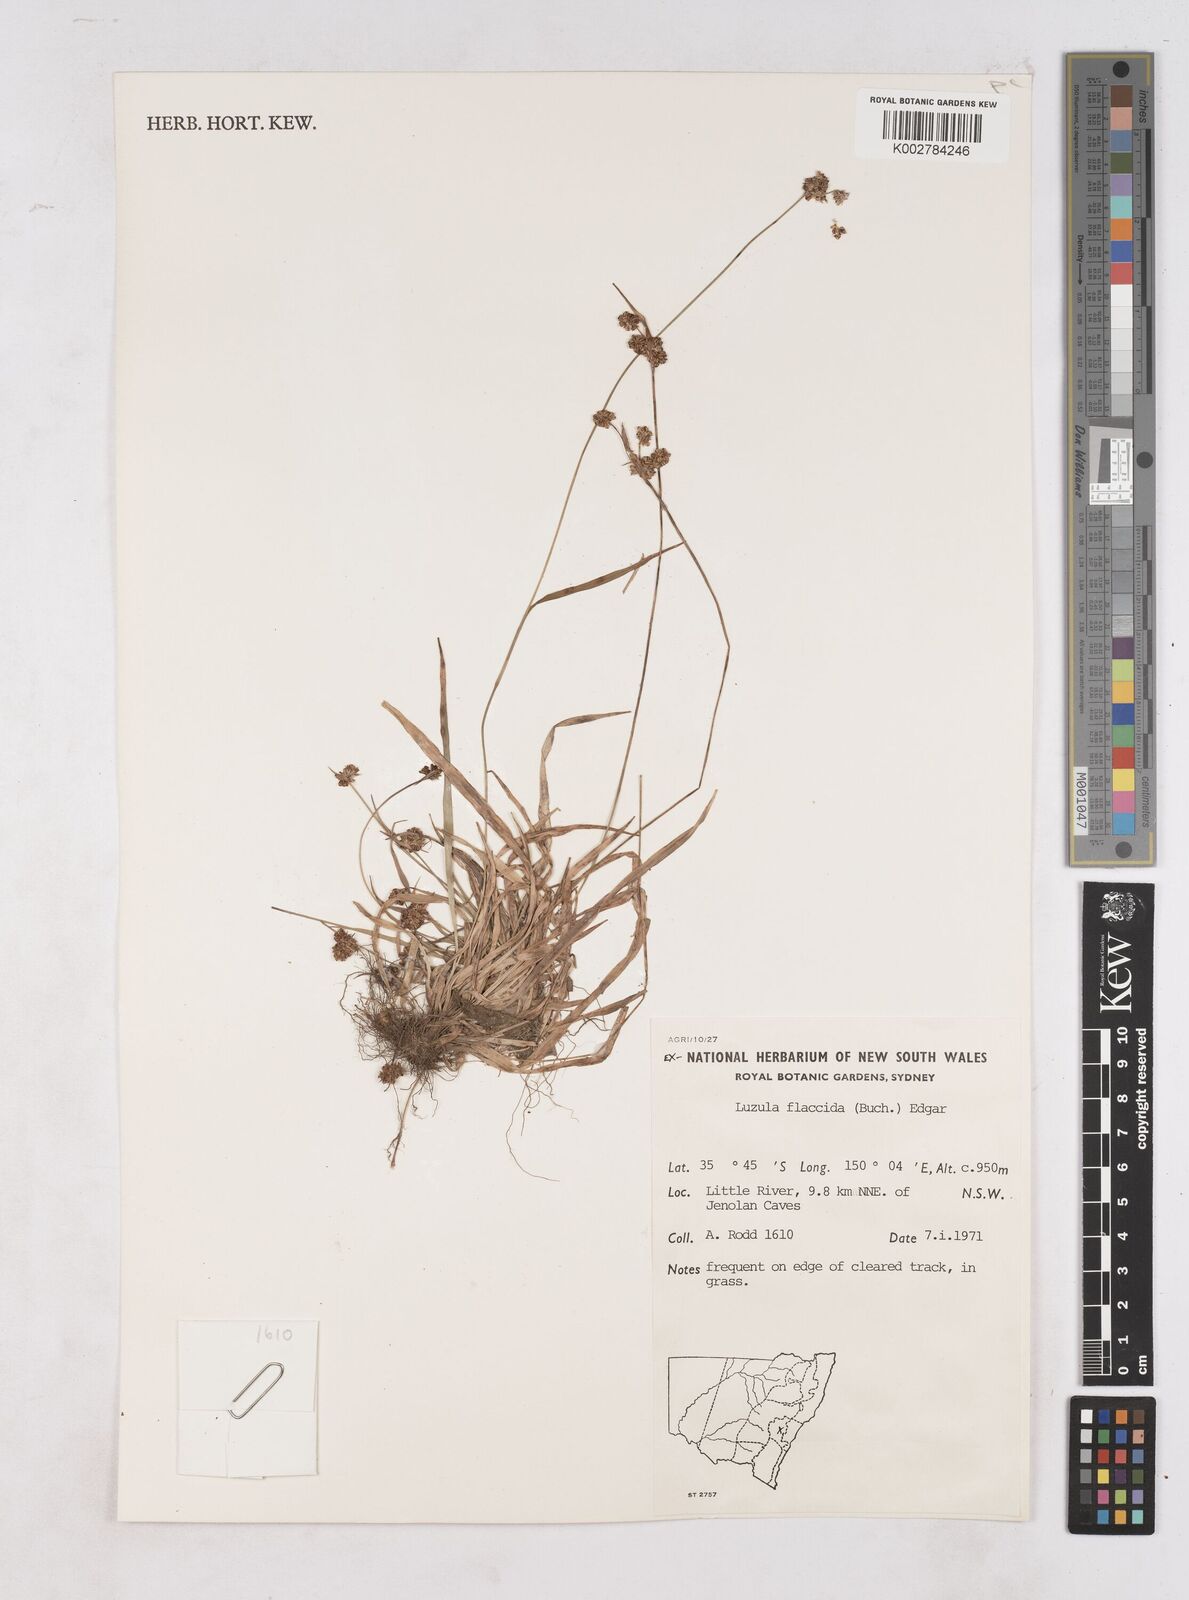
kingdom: Plantae
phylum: Tracheophyta
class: Liliopsida
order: Poales
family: Juncaceae
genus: Luzula
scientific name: Luzula flaccida
